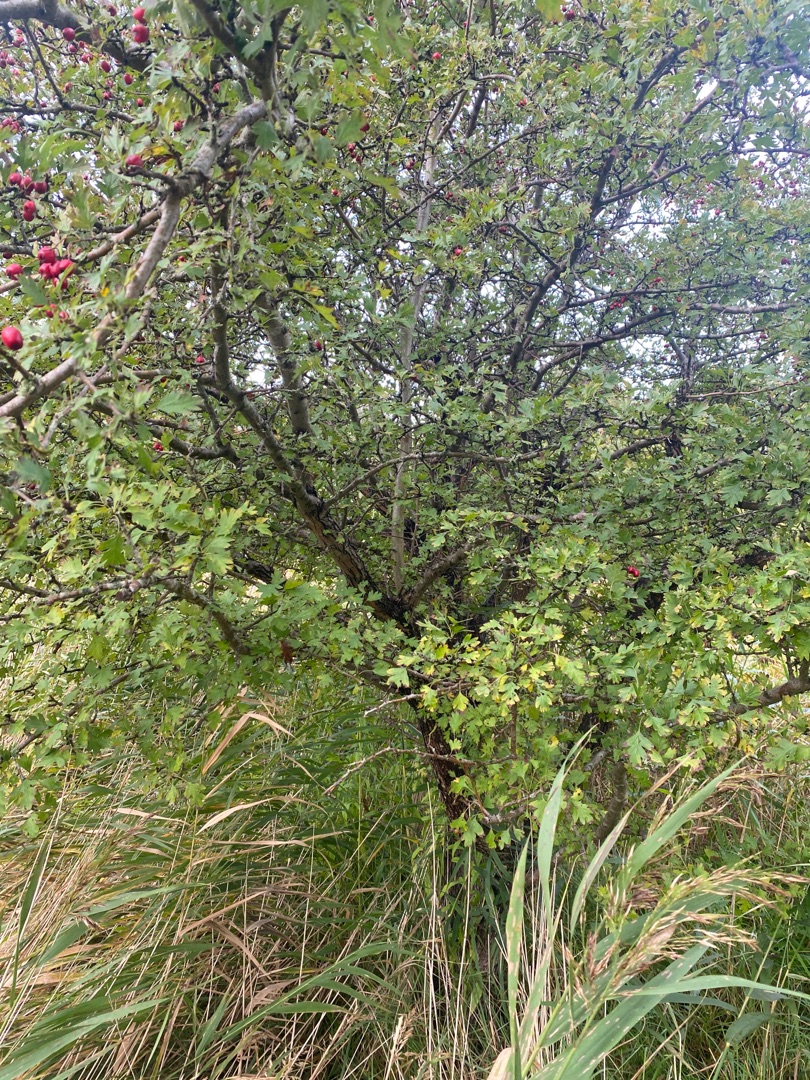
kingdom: Plantae
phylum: Tracheophyta
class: Magnoliopsida
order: Rosales
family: Rosaceae
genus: Crataegus
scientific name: Crataegus monogyna
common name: Engriflet hvidtjørn
